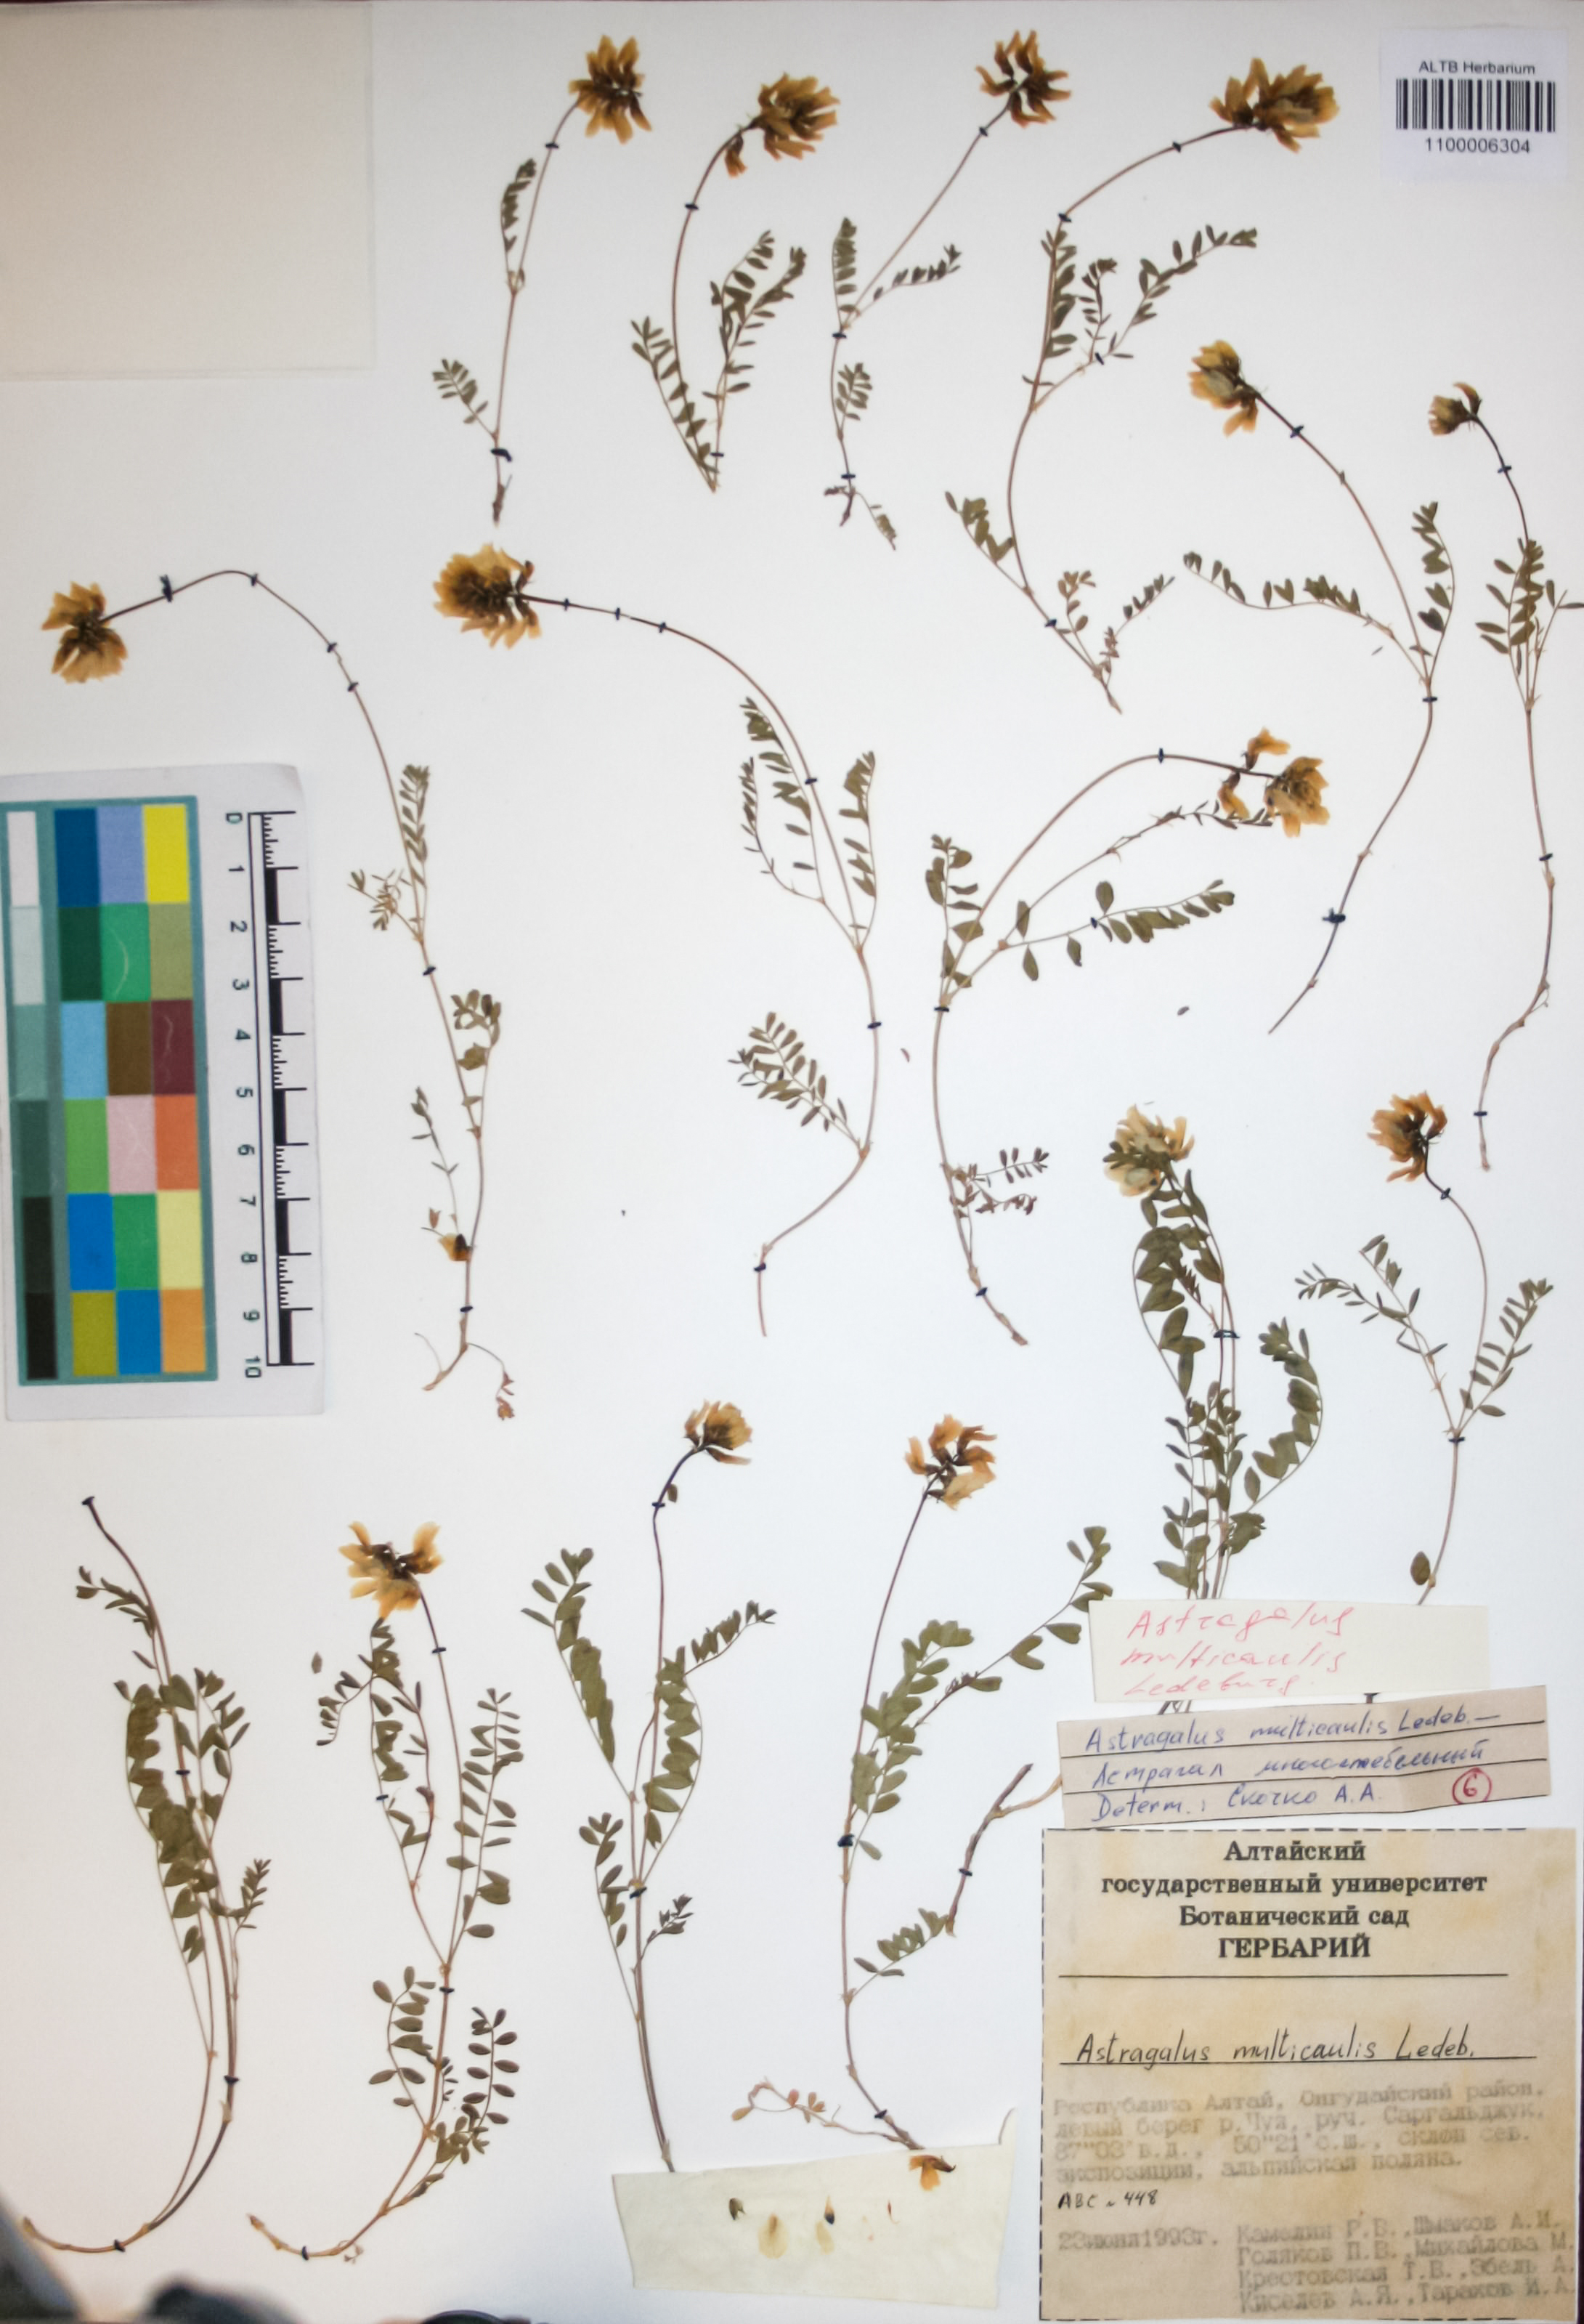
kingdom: Plantae
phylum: Tracheophyta
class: Magnoliopsida
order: Fabales
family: Fabaceae
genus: Astragalus
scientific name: Astragalus leptostachys
